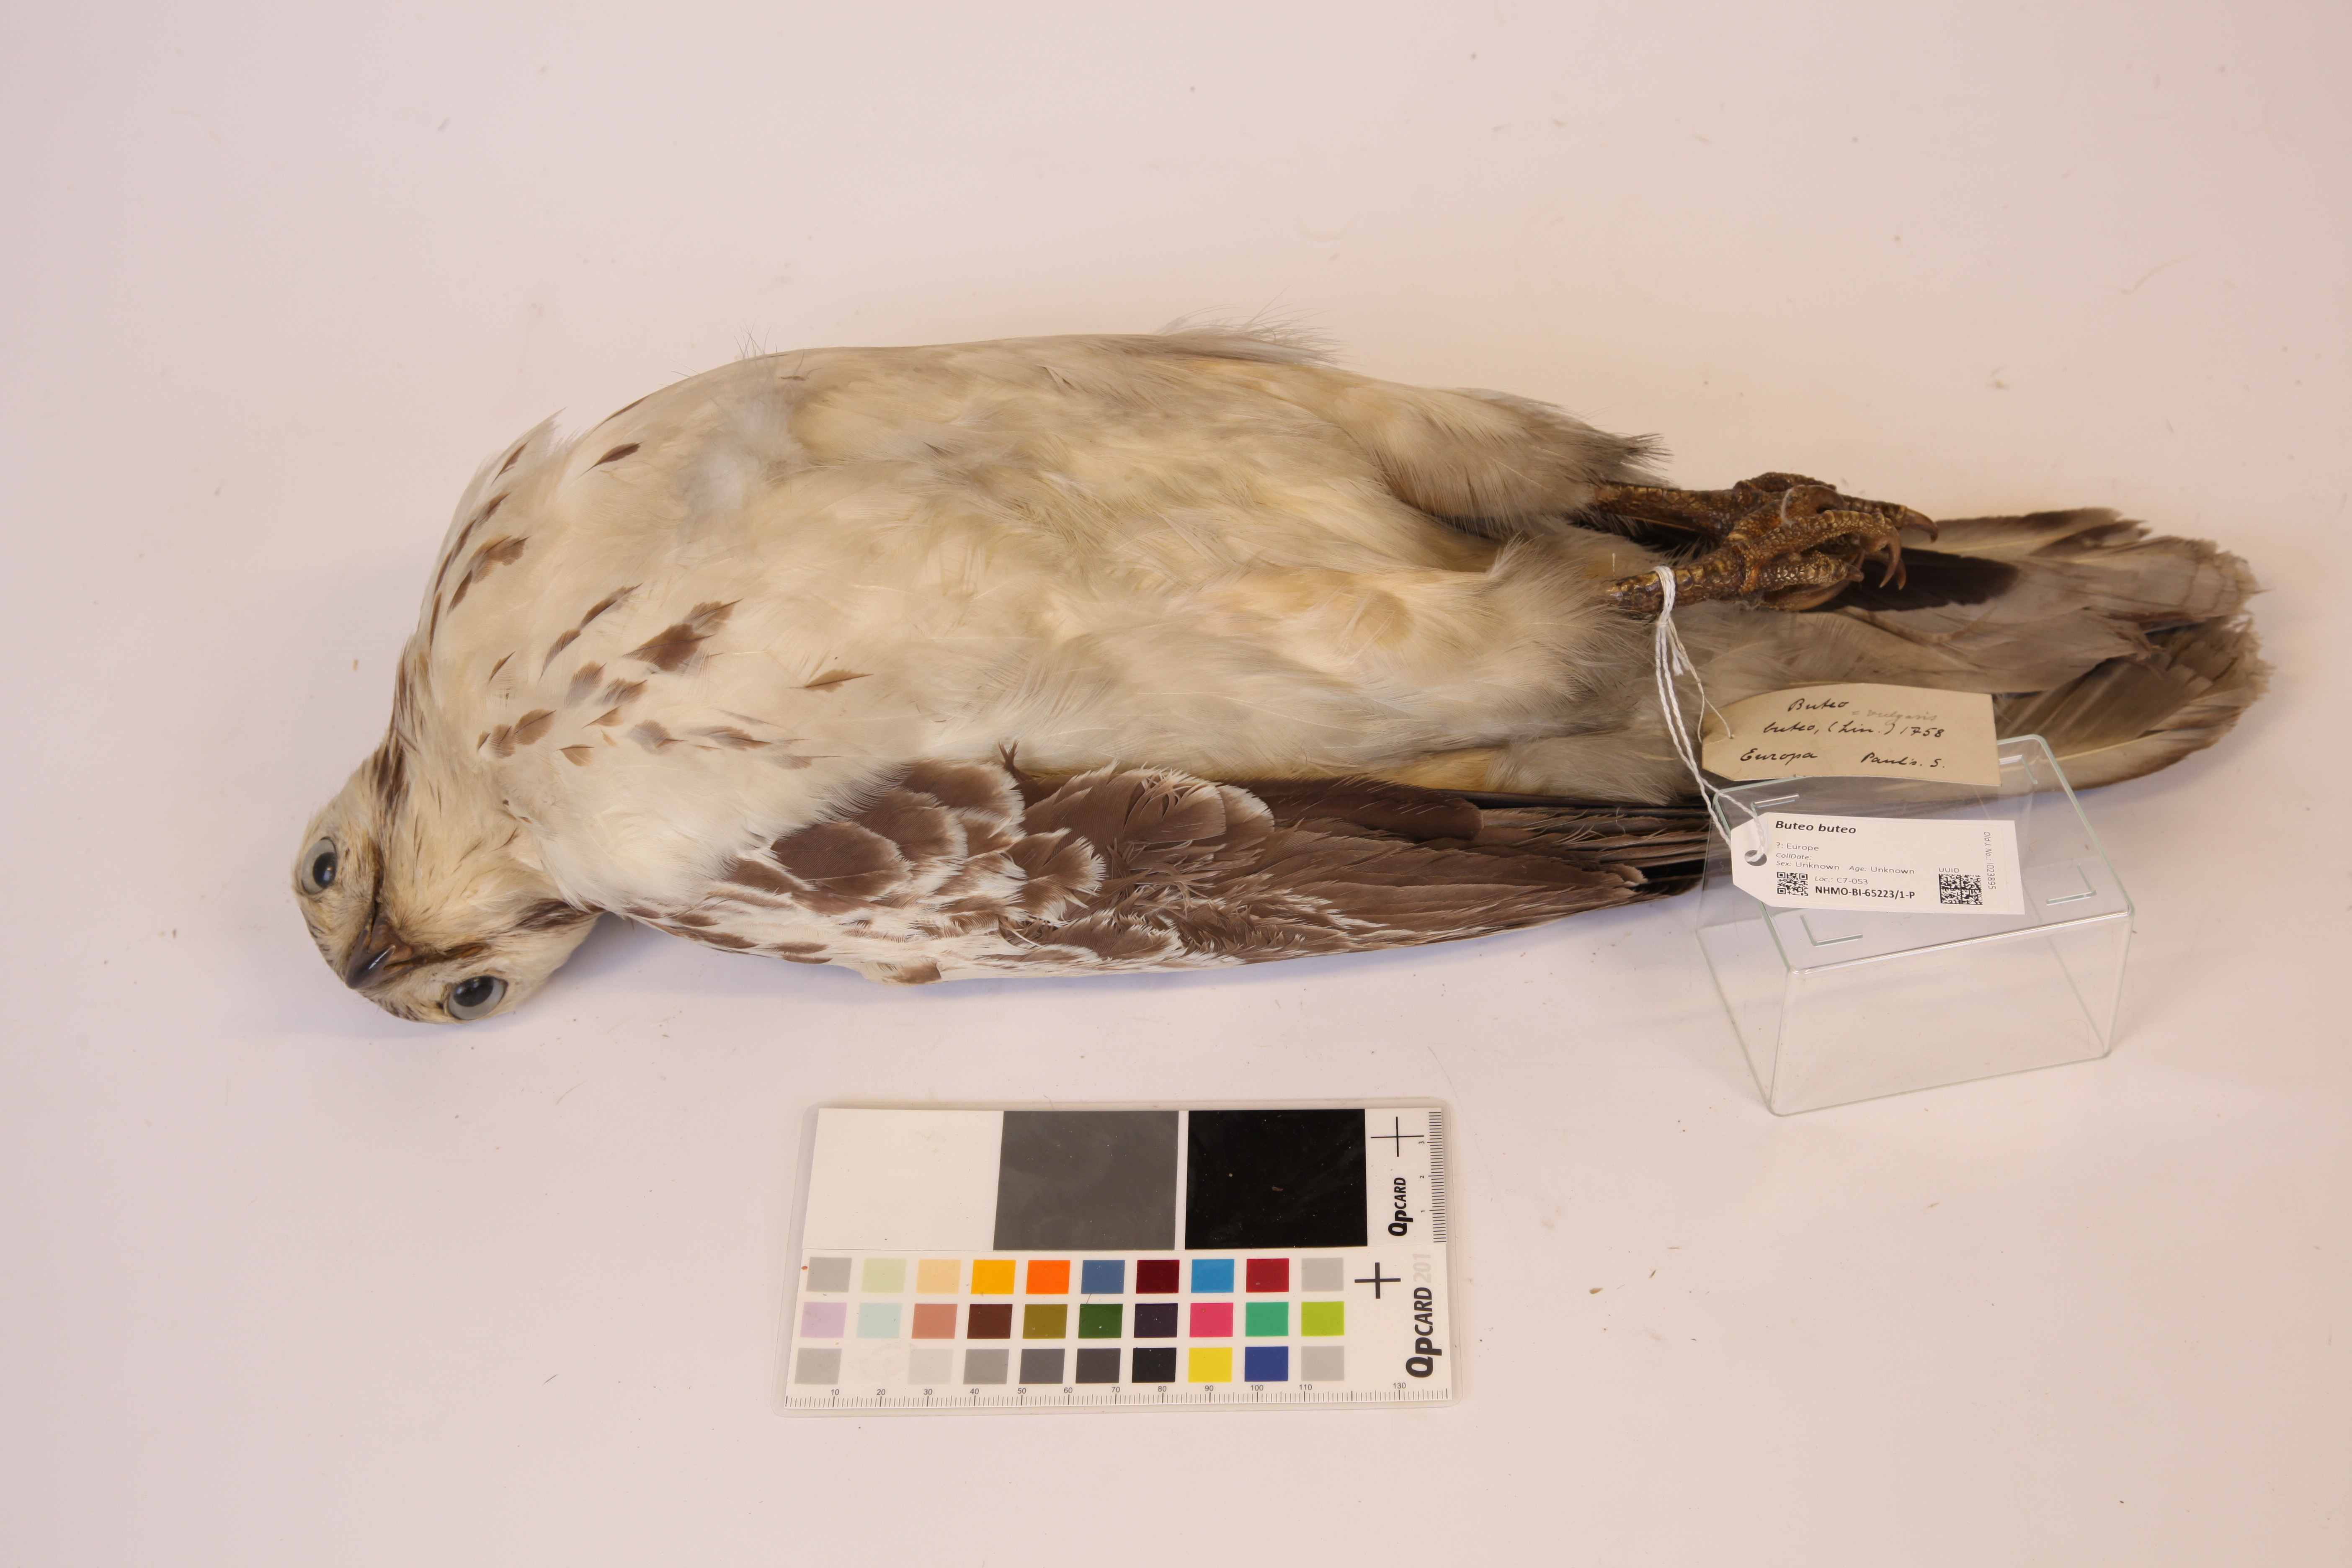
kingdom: Animalia
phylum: Chordata
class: Aves
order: Accipitriformes
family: Accipitridae
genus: Buteo
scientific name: Buteo buteo
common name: Common buzzard
